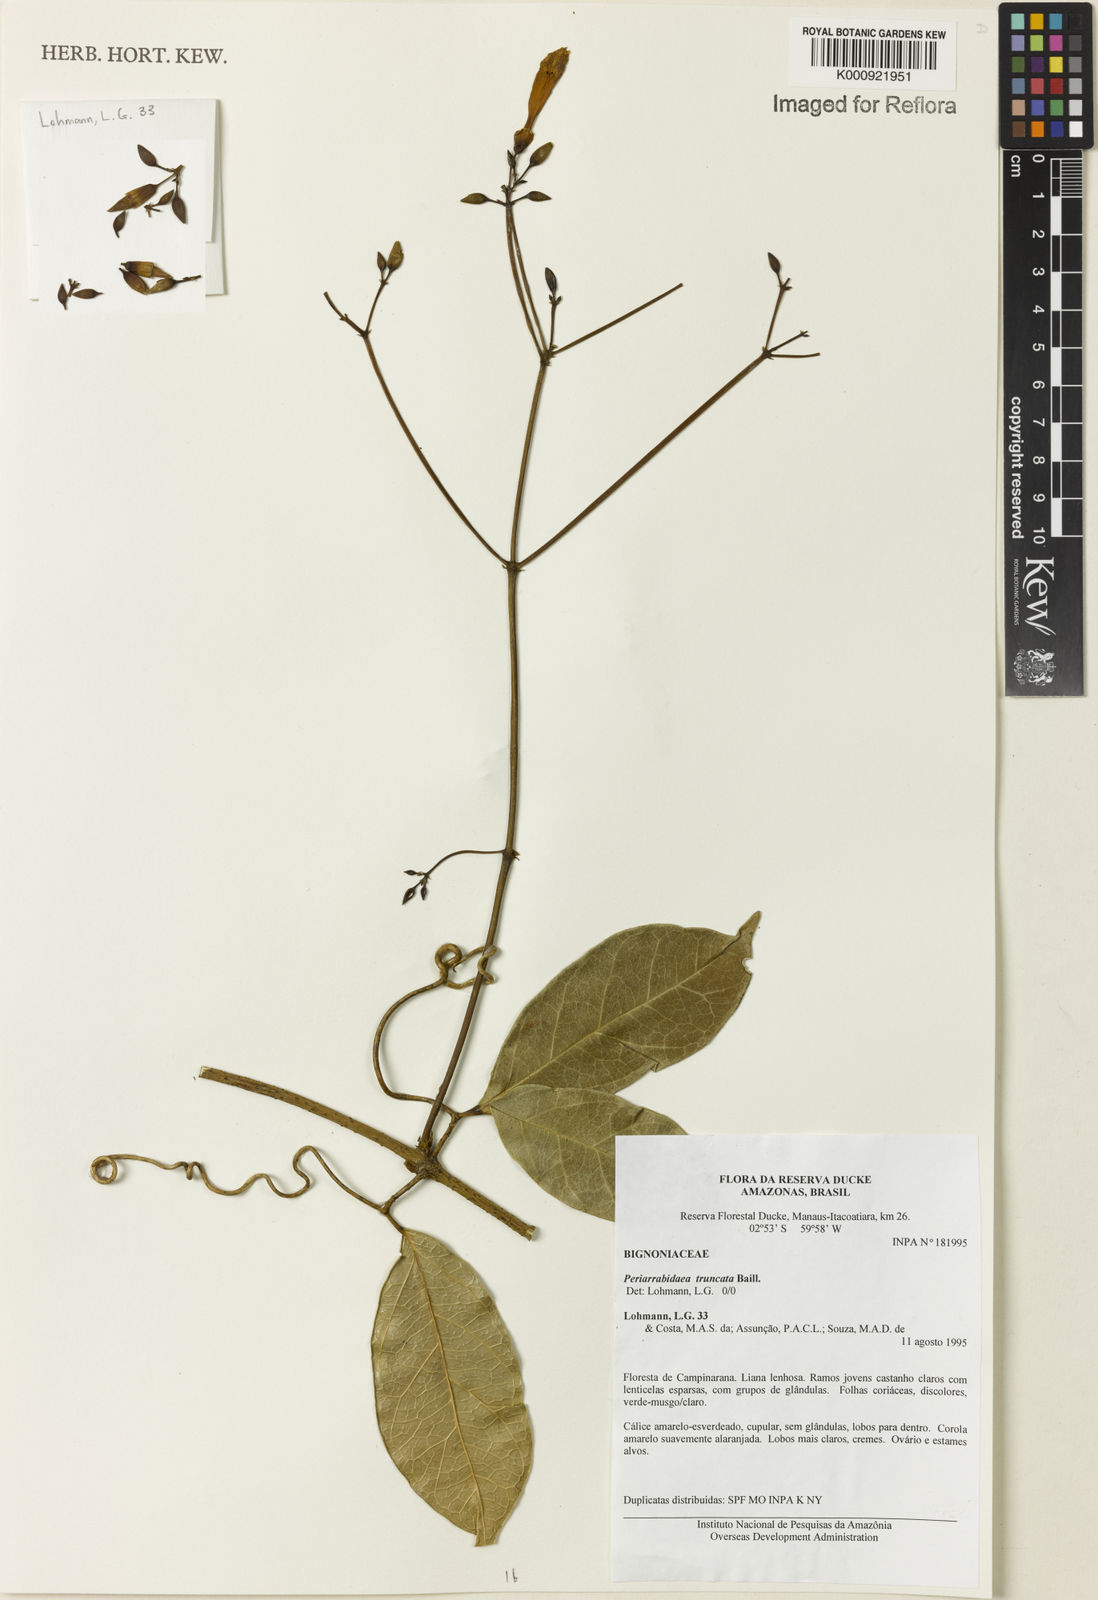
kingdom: Plantae
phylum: Tracheophyta
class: Magnoliopsida
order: Lamiales
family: Bignoniaceae
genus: Tanaecium
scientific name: Tanaecium truncatum
